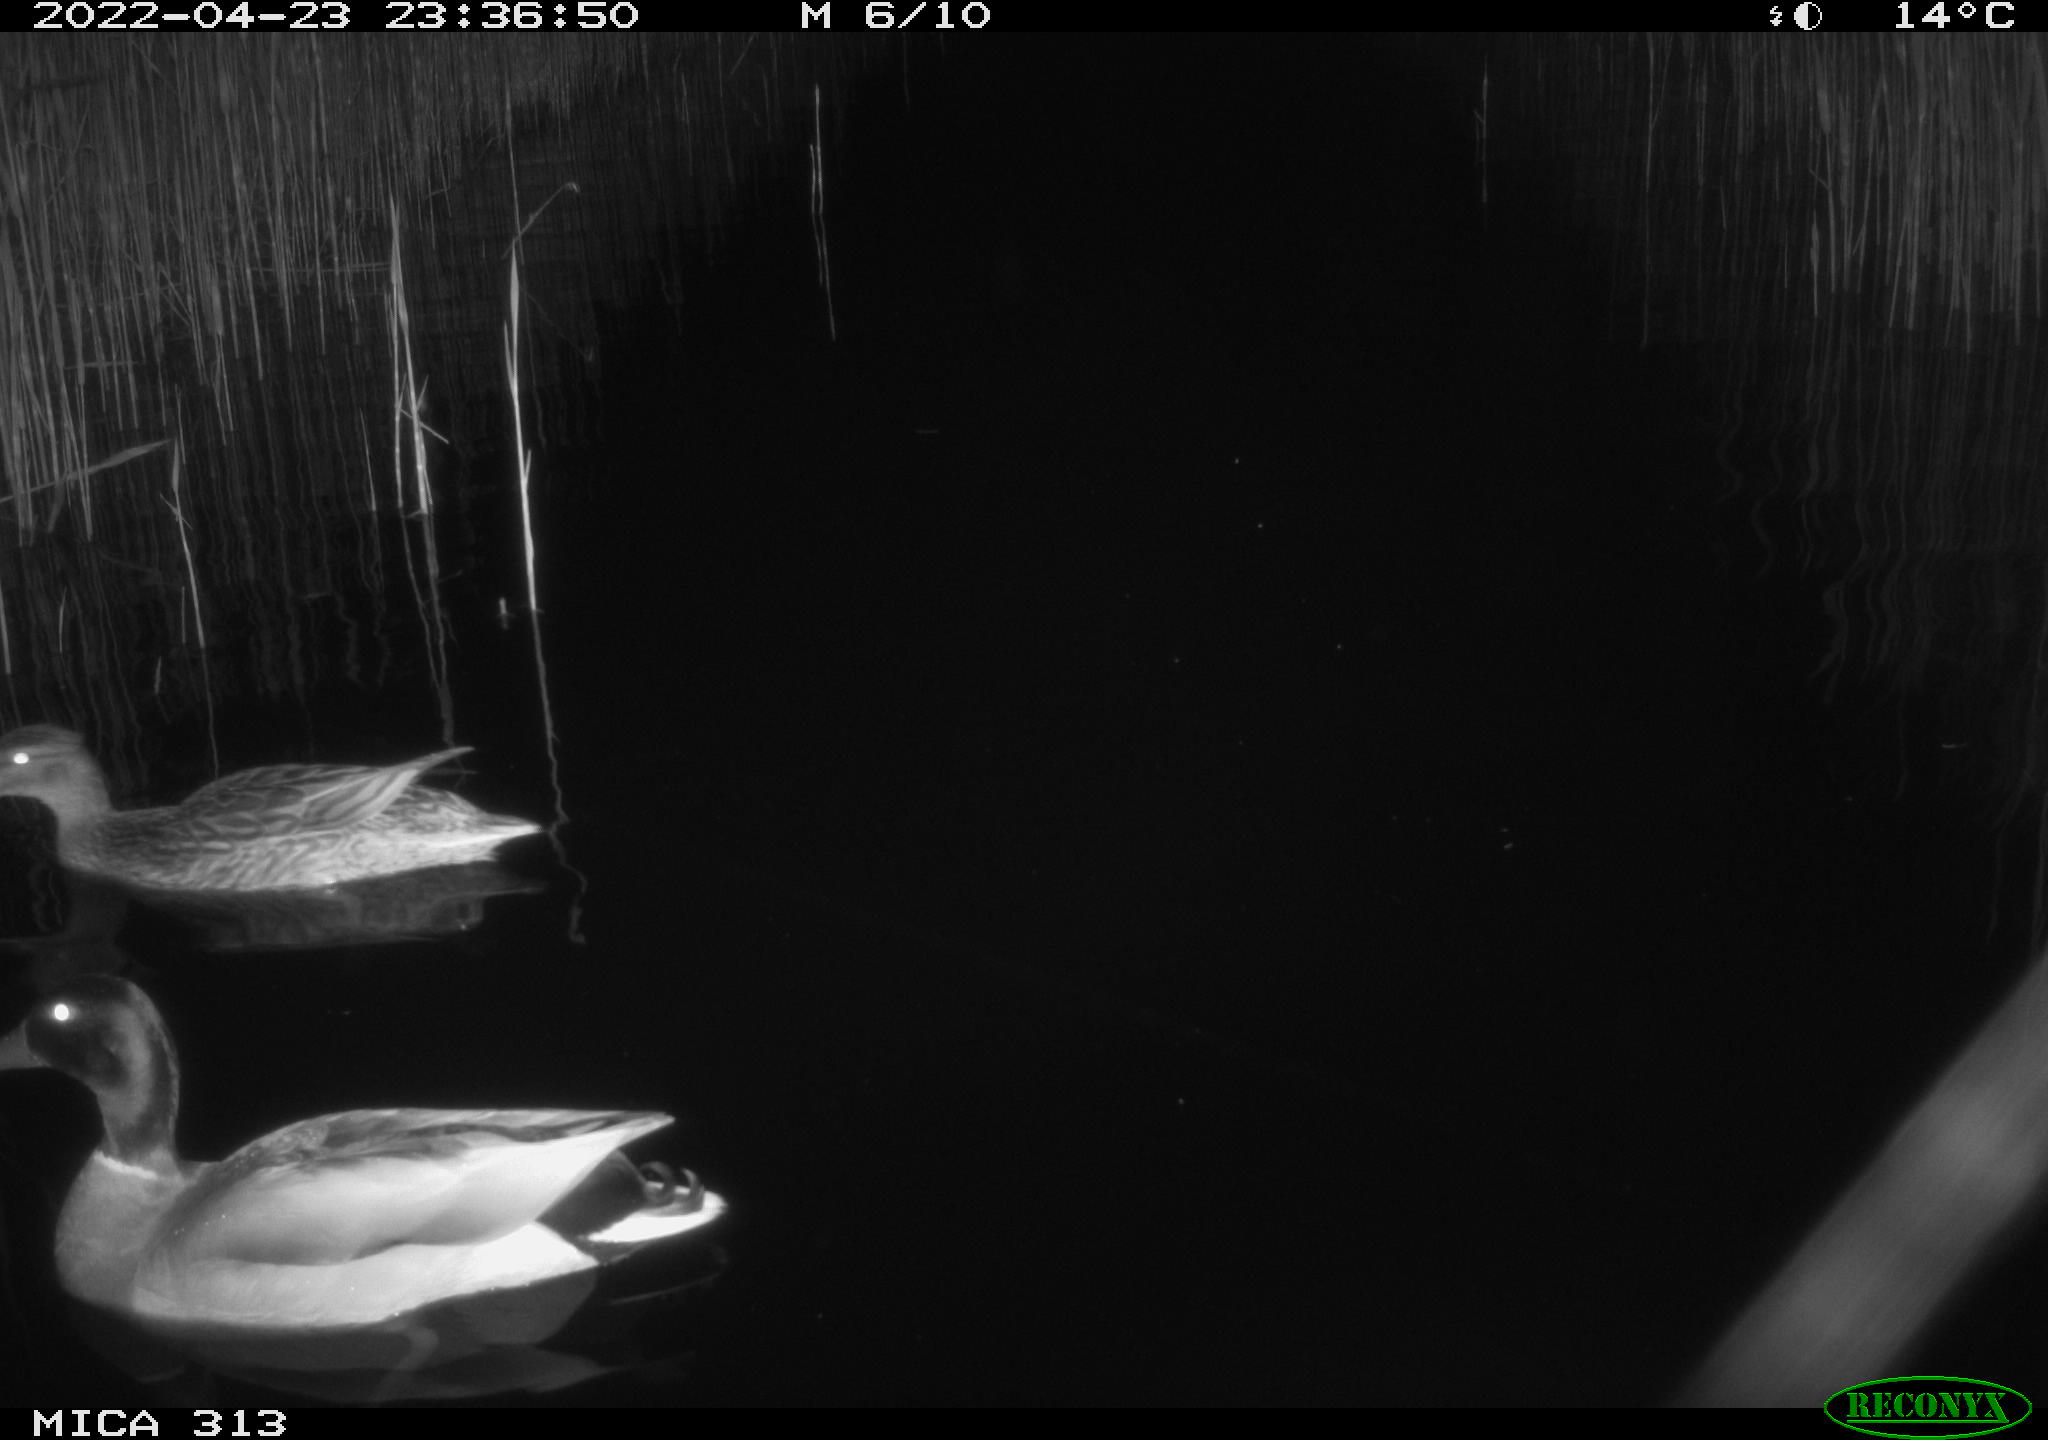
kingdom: Animalia
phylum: Chordata
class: Aves
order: Anseriformes
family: Anatidae
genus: Anas
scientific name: Anas platyrhynchos
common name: Mallard
